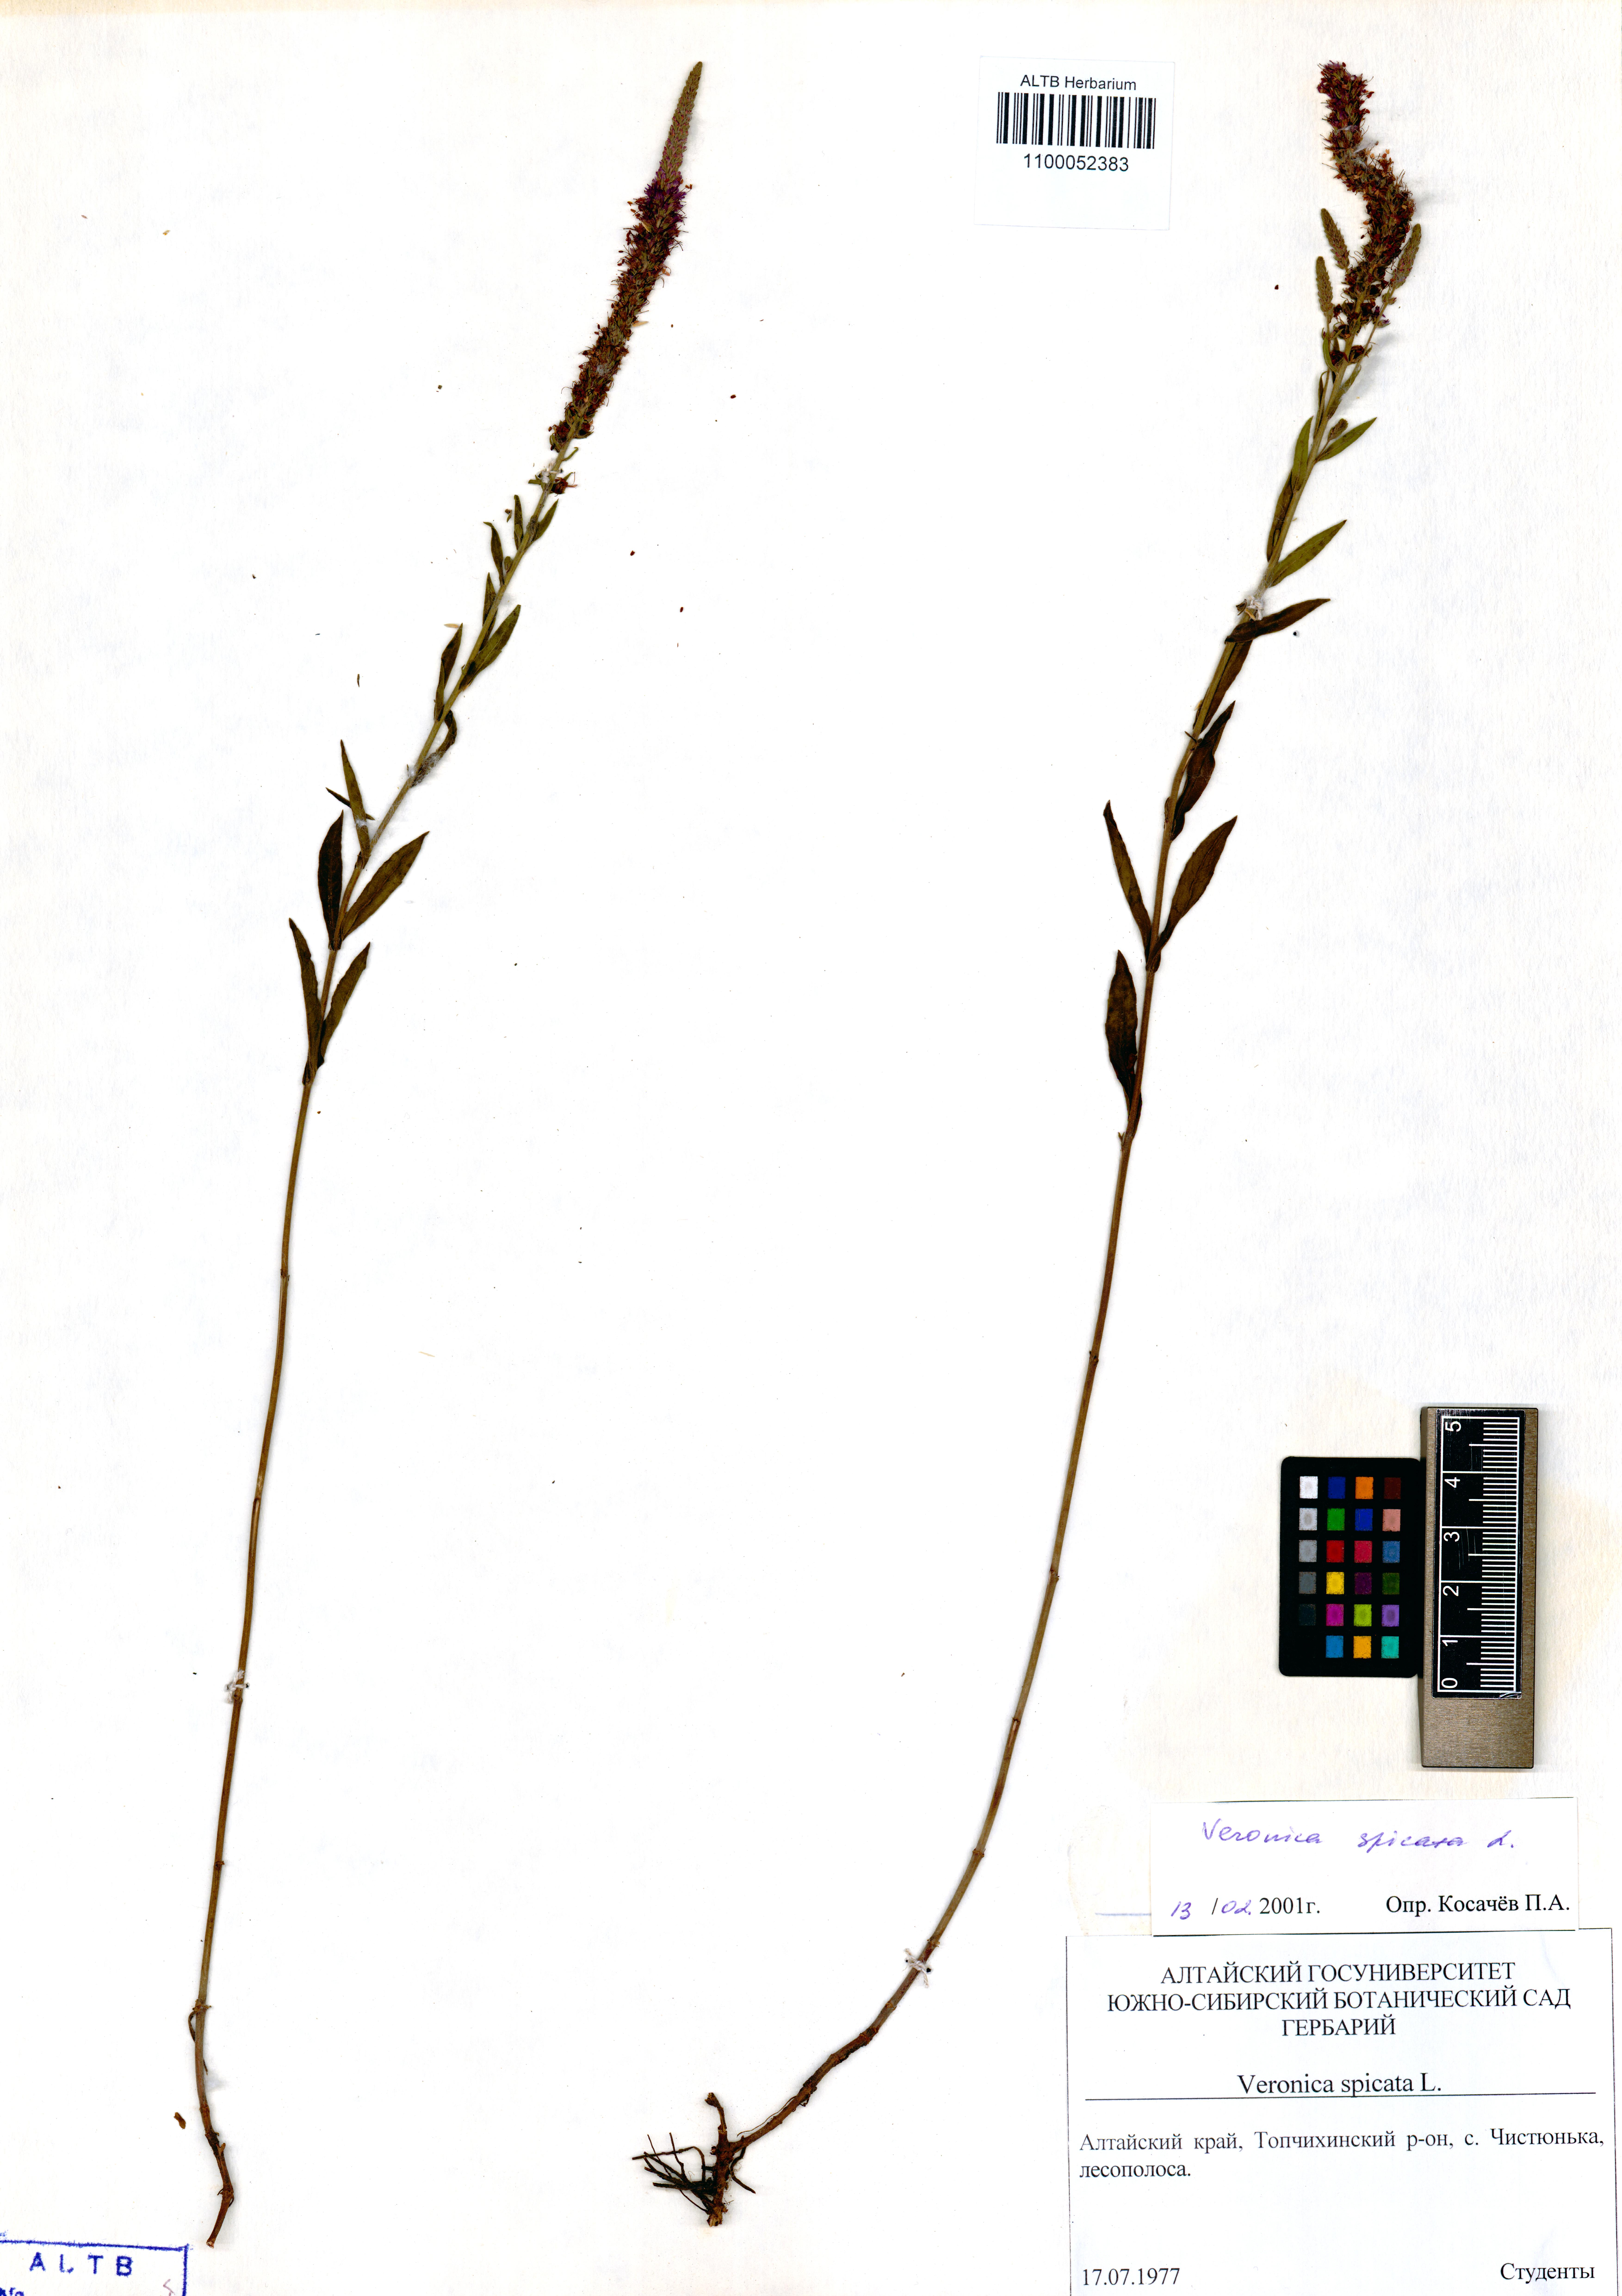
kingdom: Plantae
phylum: Tracheophyta
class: Magnoliopsida
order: Lamiales
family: Plantaginaceae
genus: Veronica
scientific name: Veronica spicata
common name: Spiked speedwell
